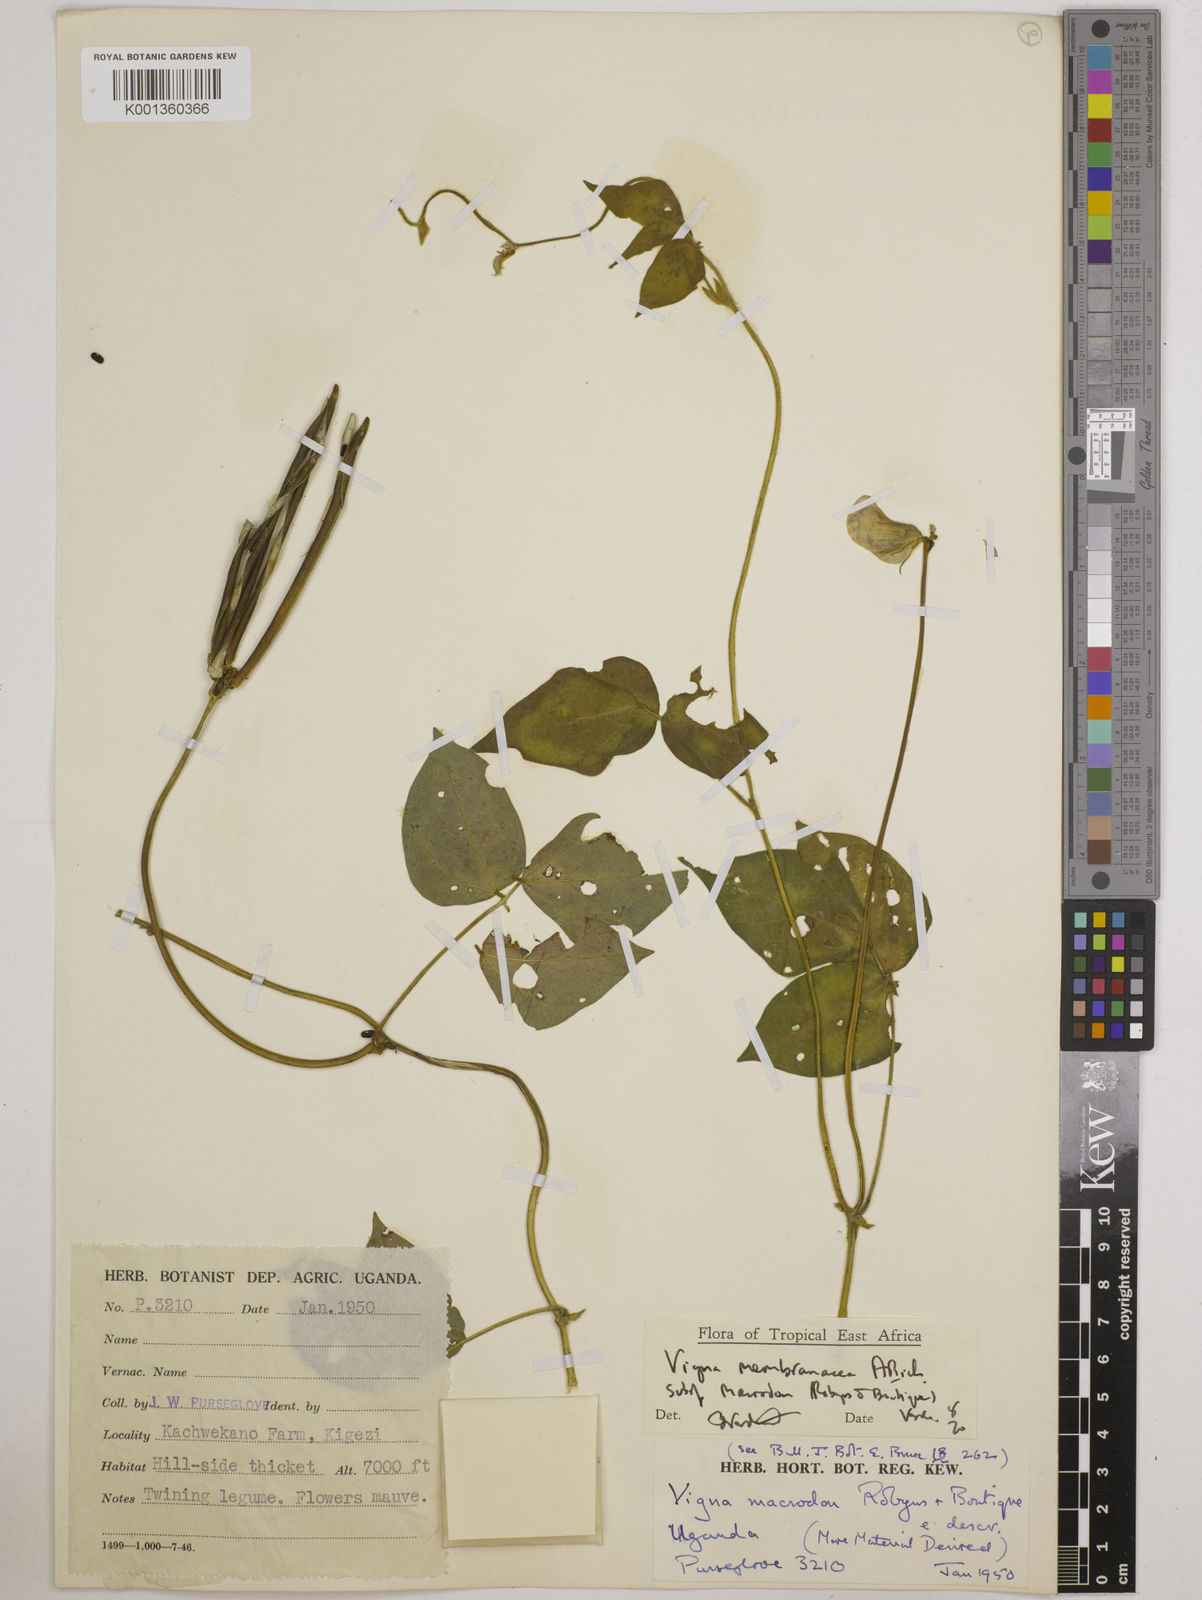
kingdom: Plantae
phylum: Tracheophyta
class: Magnoliopsida
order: Fabales
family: Fabaceae
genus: Vigna
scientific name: Vigna
